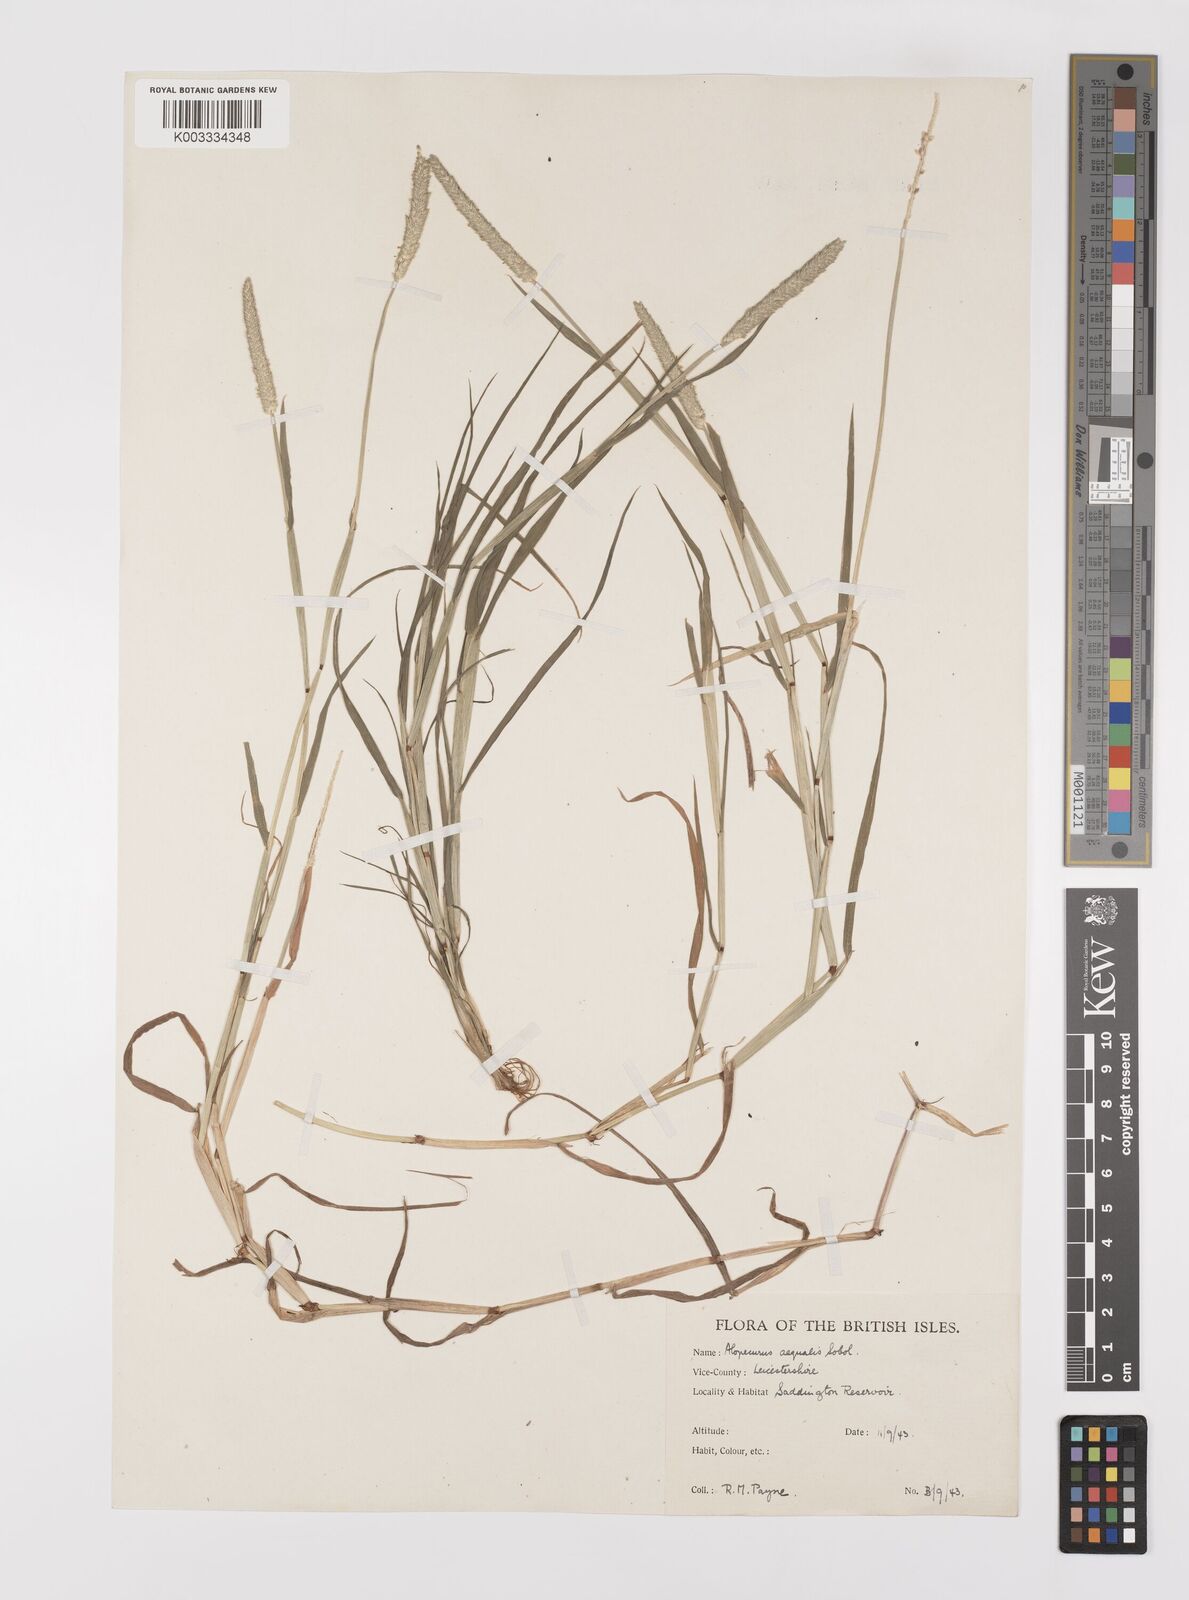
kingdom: Plantae
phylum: Tracheophyta
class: Liliopsida
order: Poales
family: Poaceae
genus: Alopecurus
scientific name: Alopecurus aequalis
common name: Orange foxtail
